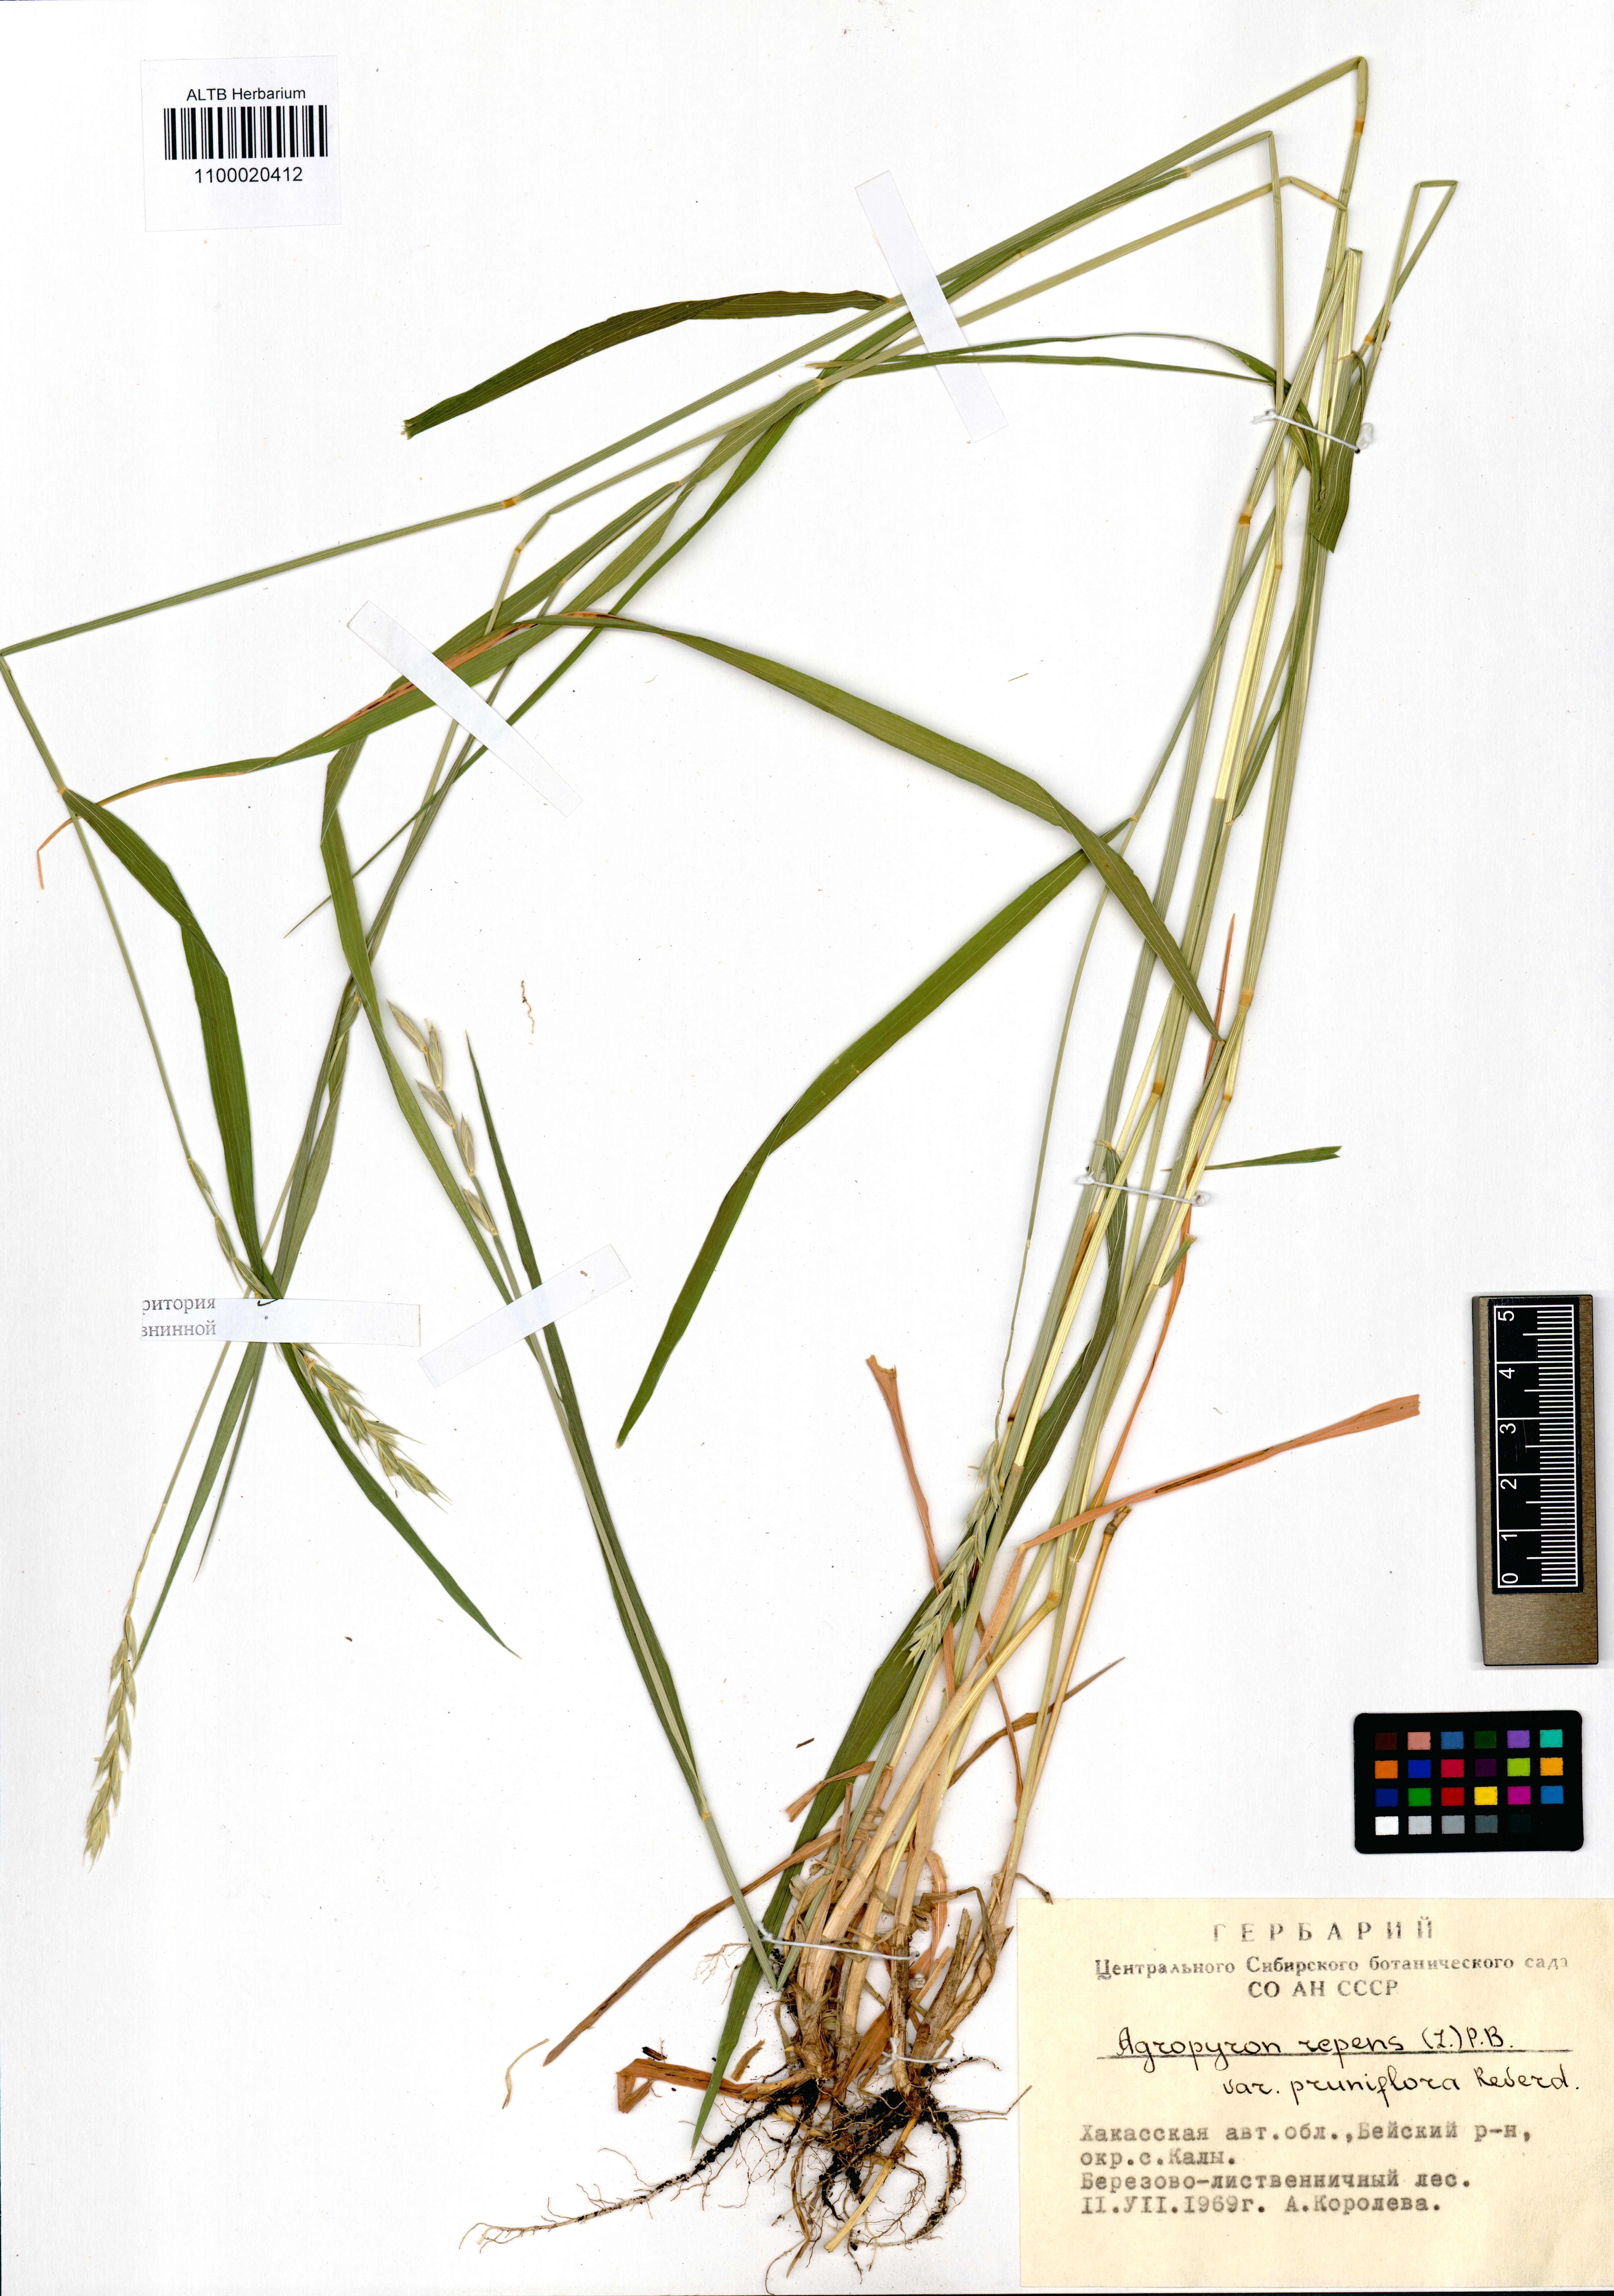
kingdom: Plantae
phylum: Tracheophyta
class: Liliopsida
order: Poales
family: Poaceae
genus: Elymus
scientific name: Elymus repens
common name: Quackgrass
